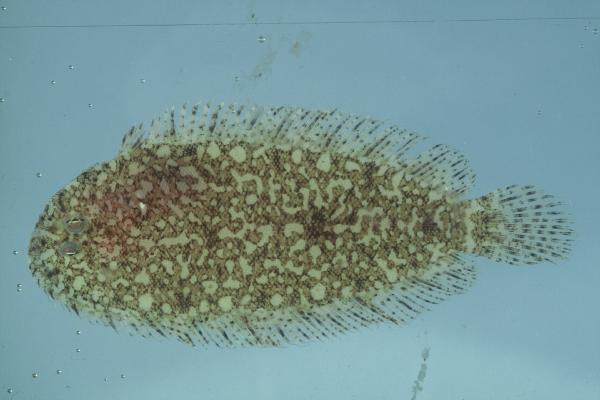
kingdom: Animalia
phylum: Chordata
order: Pleuronectiformes
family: Soleidae
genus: Aseraggodes
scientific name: Aseraggodes xenicus
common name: Dwarf sole
